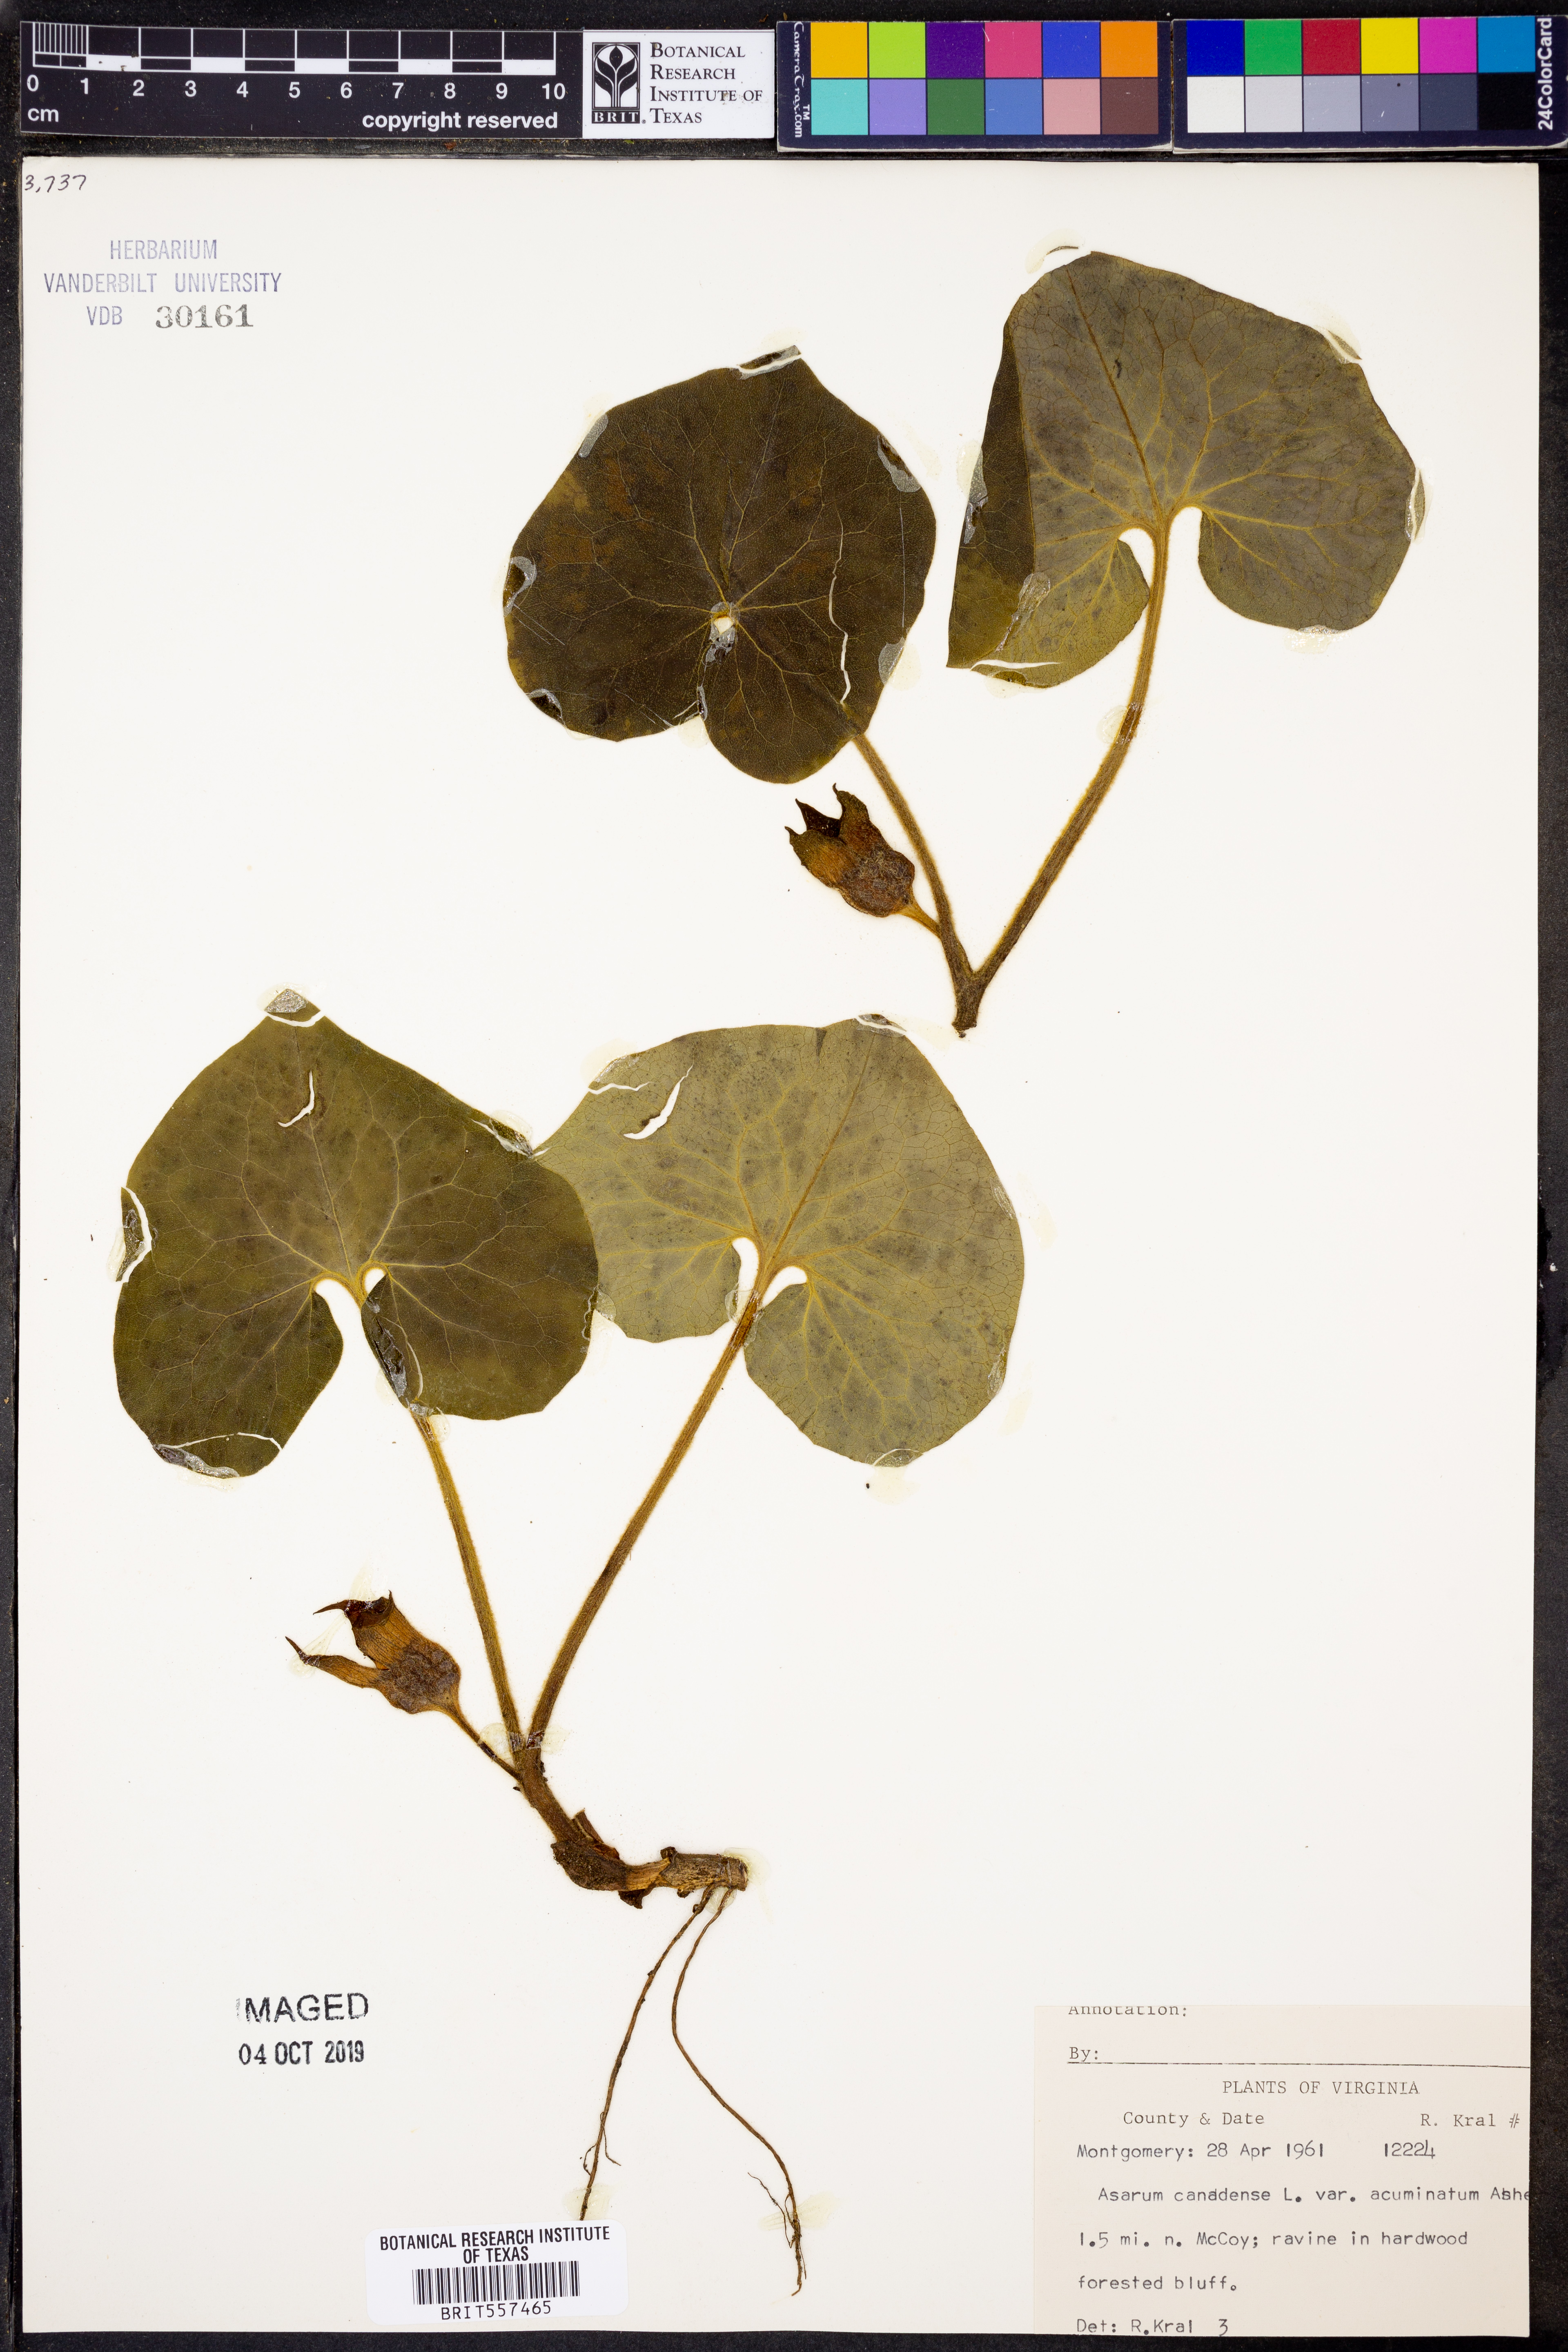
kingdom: Plantae
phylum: Tracheophyta
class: Magnoliopsida
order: Piperales
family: Aristolochiaceae
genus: Asarum
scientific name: Asarum canadense
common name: Wild ginger
